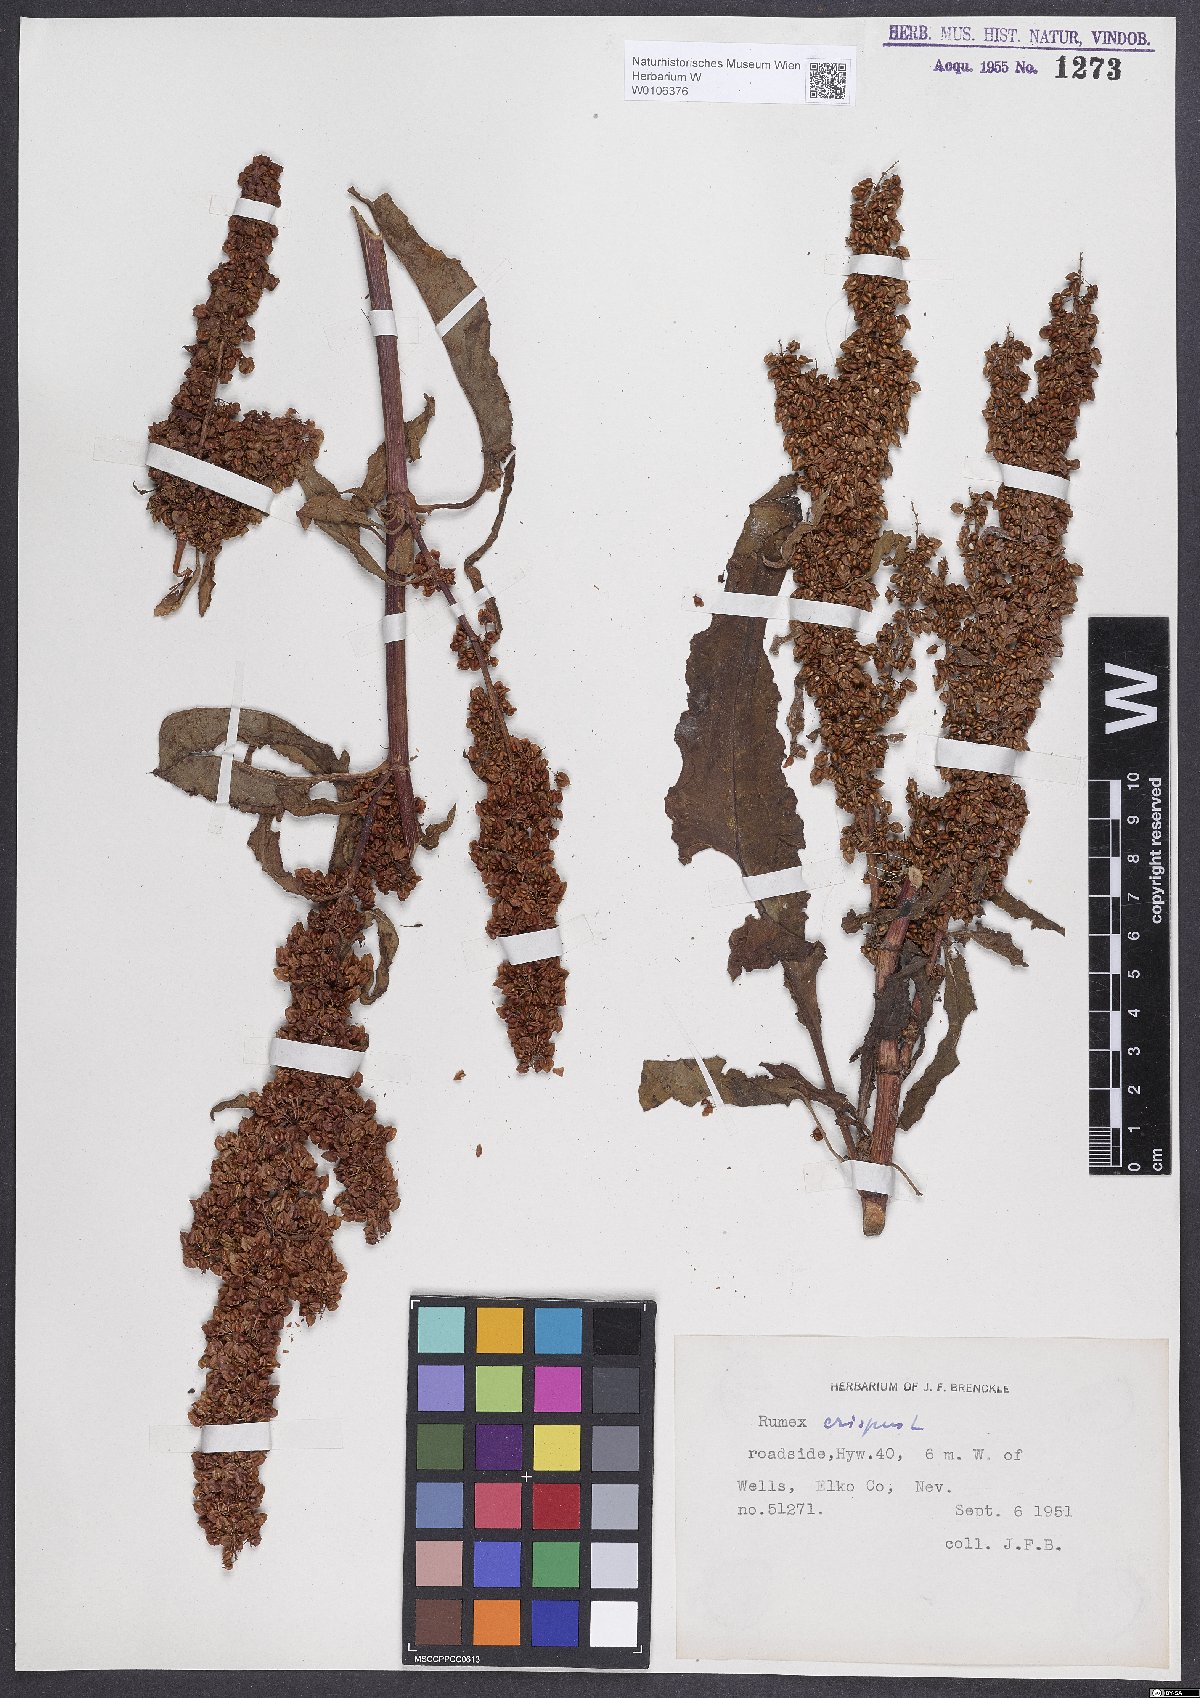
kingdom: Plantae
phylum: Tracheophyta
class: Magnoliopsida
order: Caryophyllales
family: Polygonaceae
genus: Rumex
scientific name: Rumex crispus
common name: Curled dock
